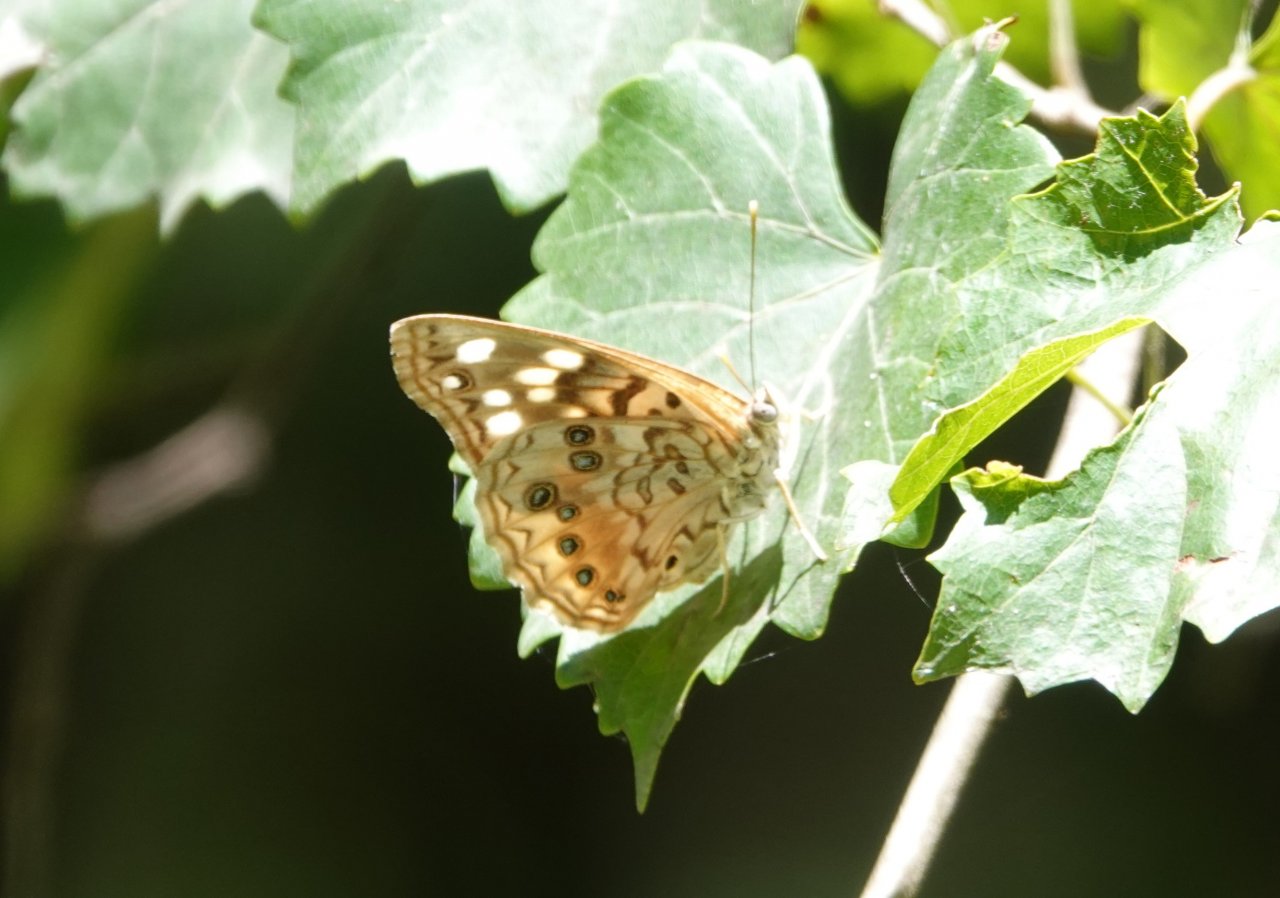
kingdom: Animalia
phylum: Arthropoda
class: Insecta
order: Lepidoptera
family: Nymphalidae
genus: Asterocampa
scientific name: Asterocampa celtis
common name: Hackberry Emperor
